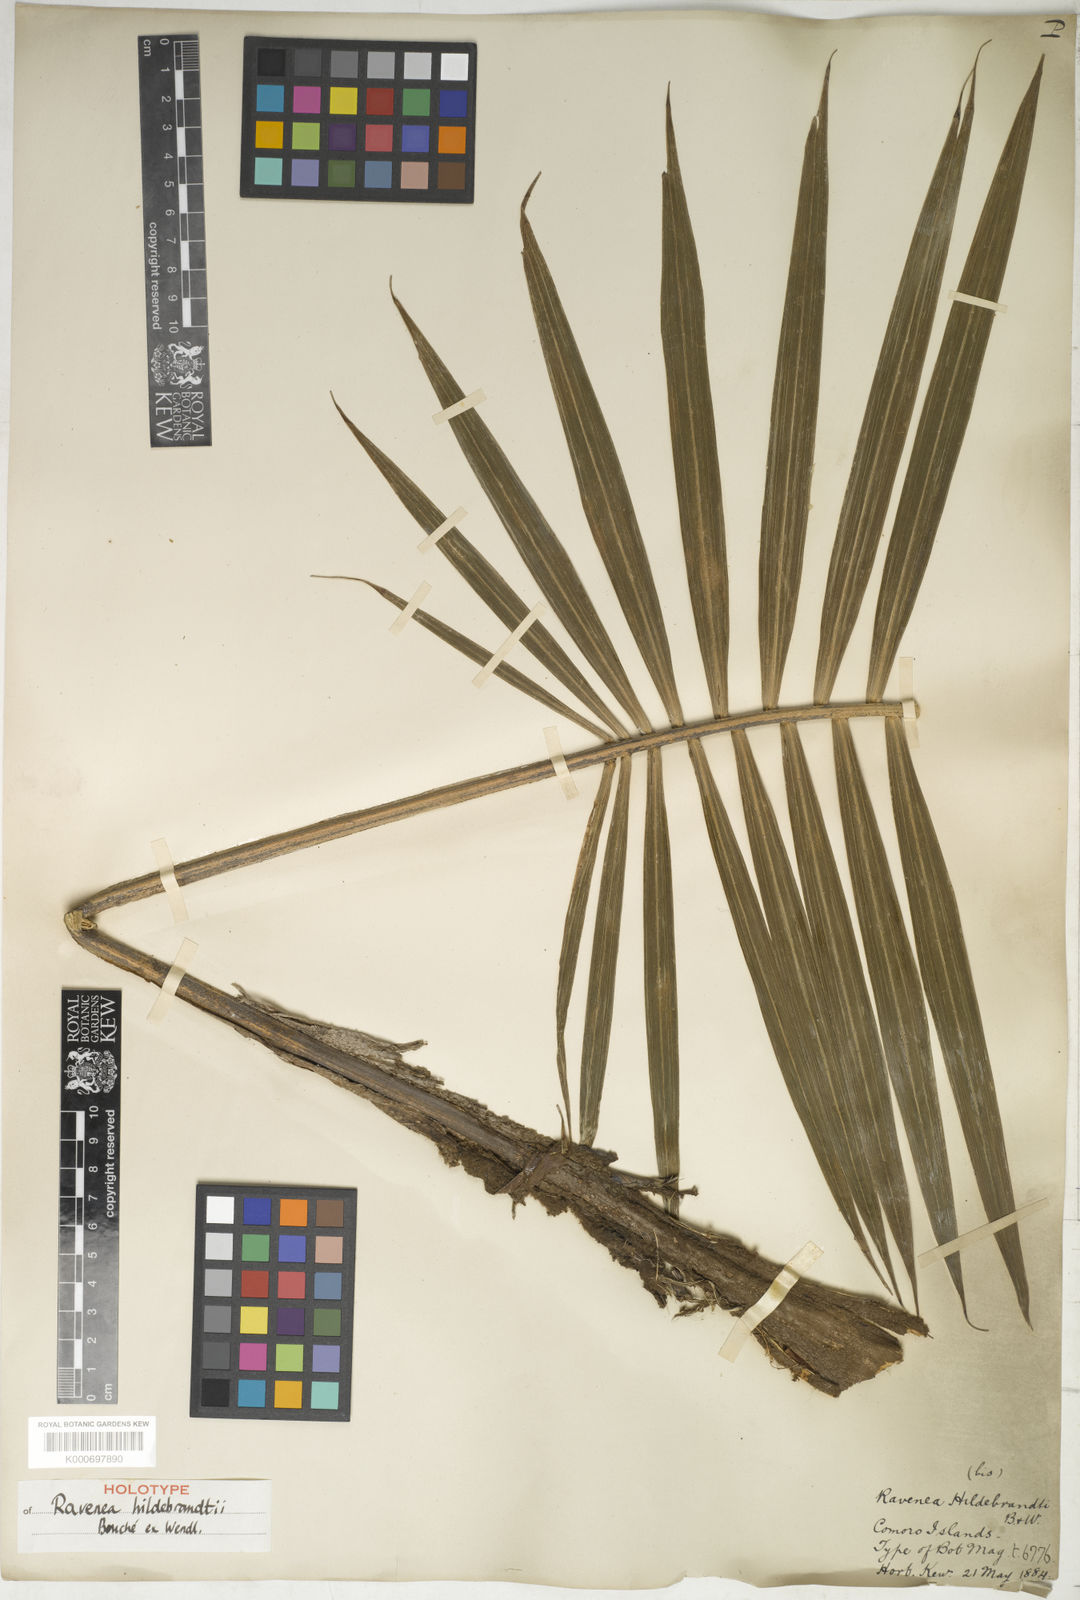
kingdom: Plantae
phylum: Tracheophyta
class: Liliopsida
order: Arecales
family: Arecaceae
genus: Ravenea
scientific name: Ravenea hildebrandtii
